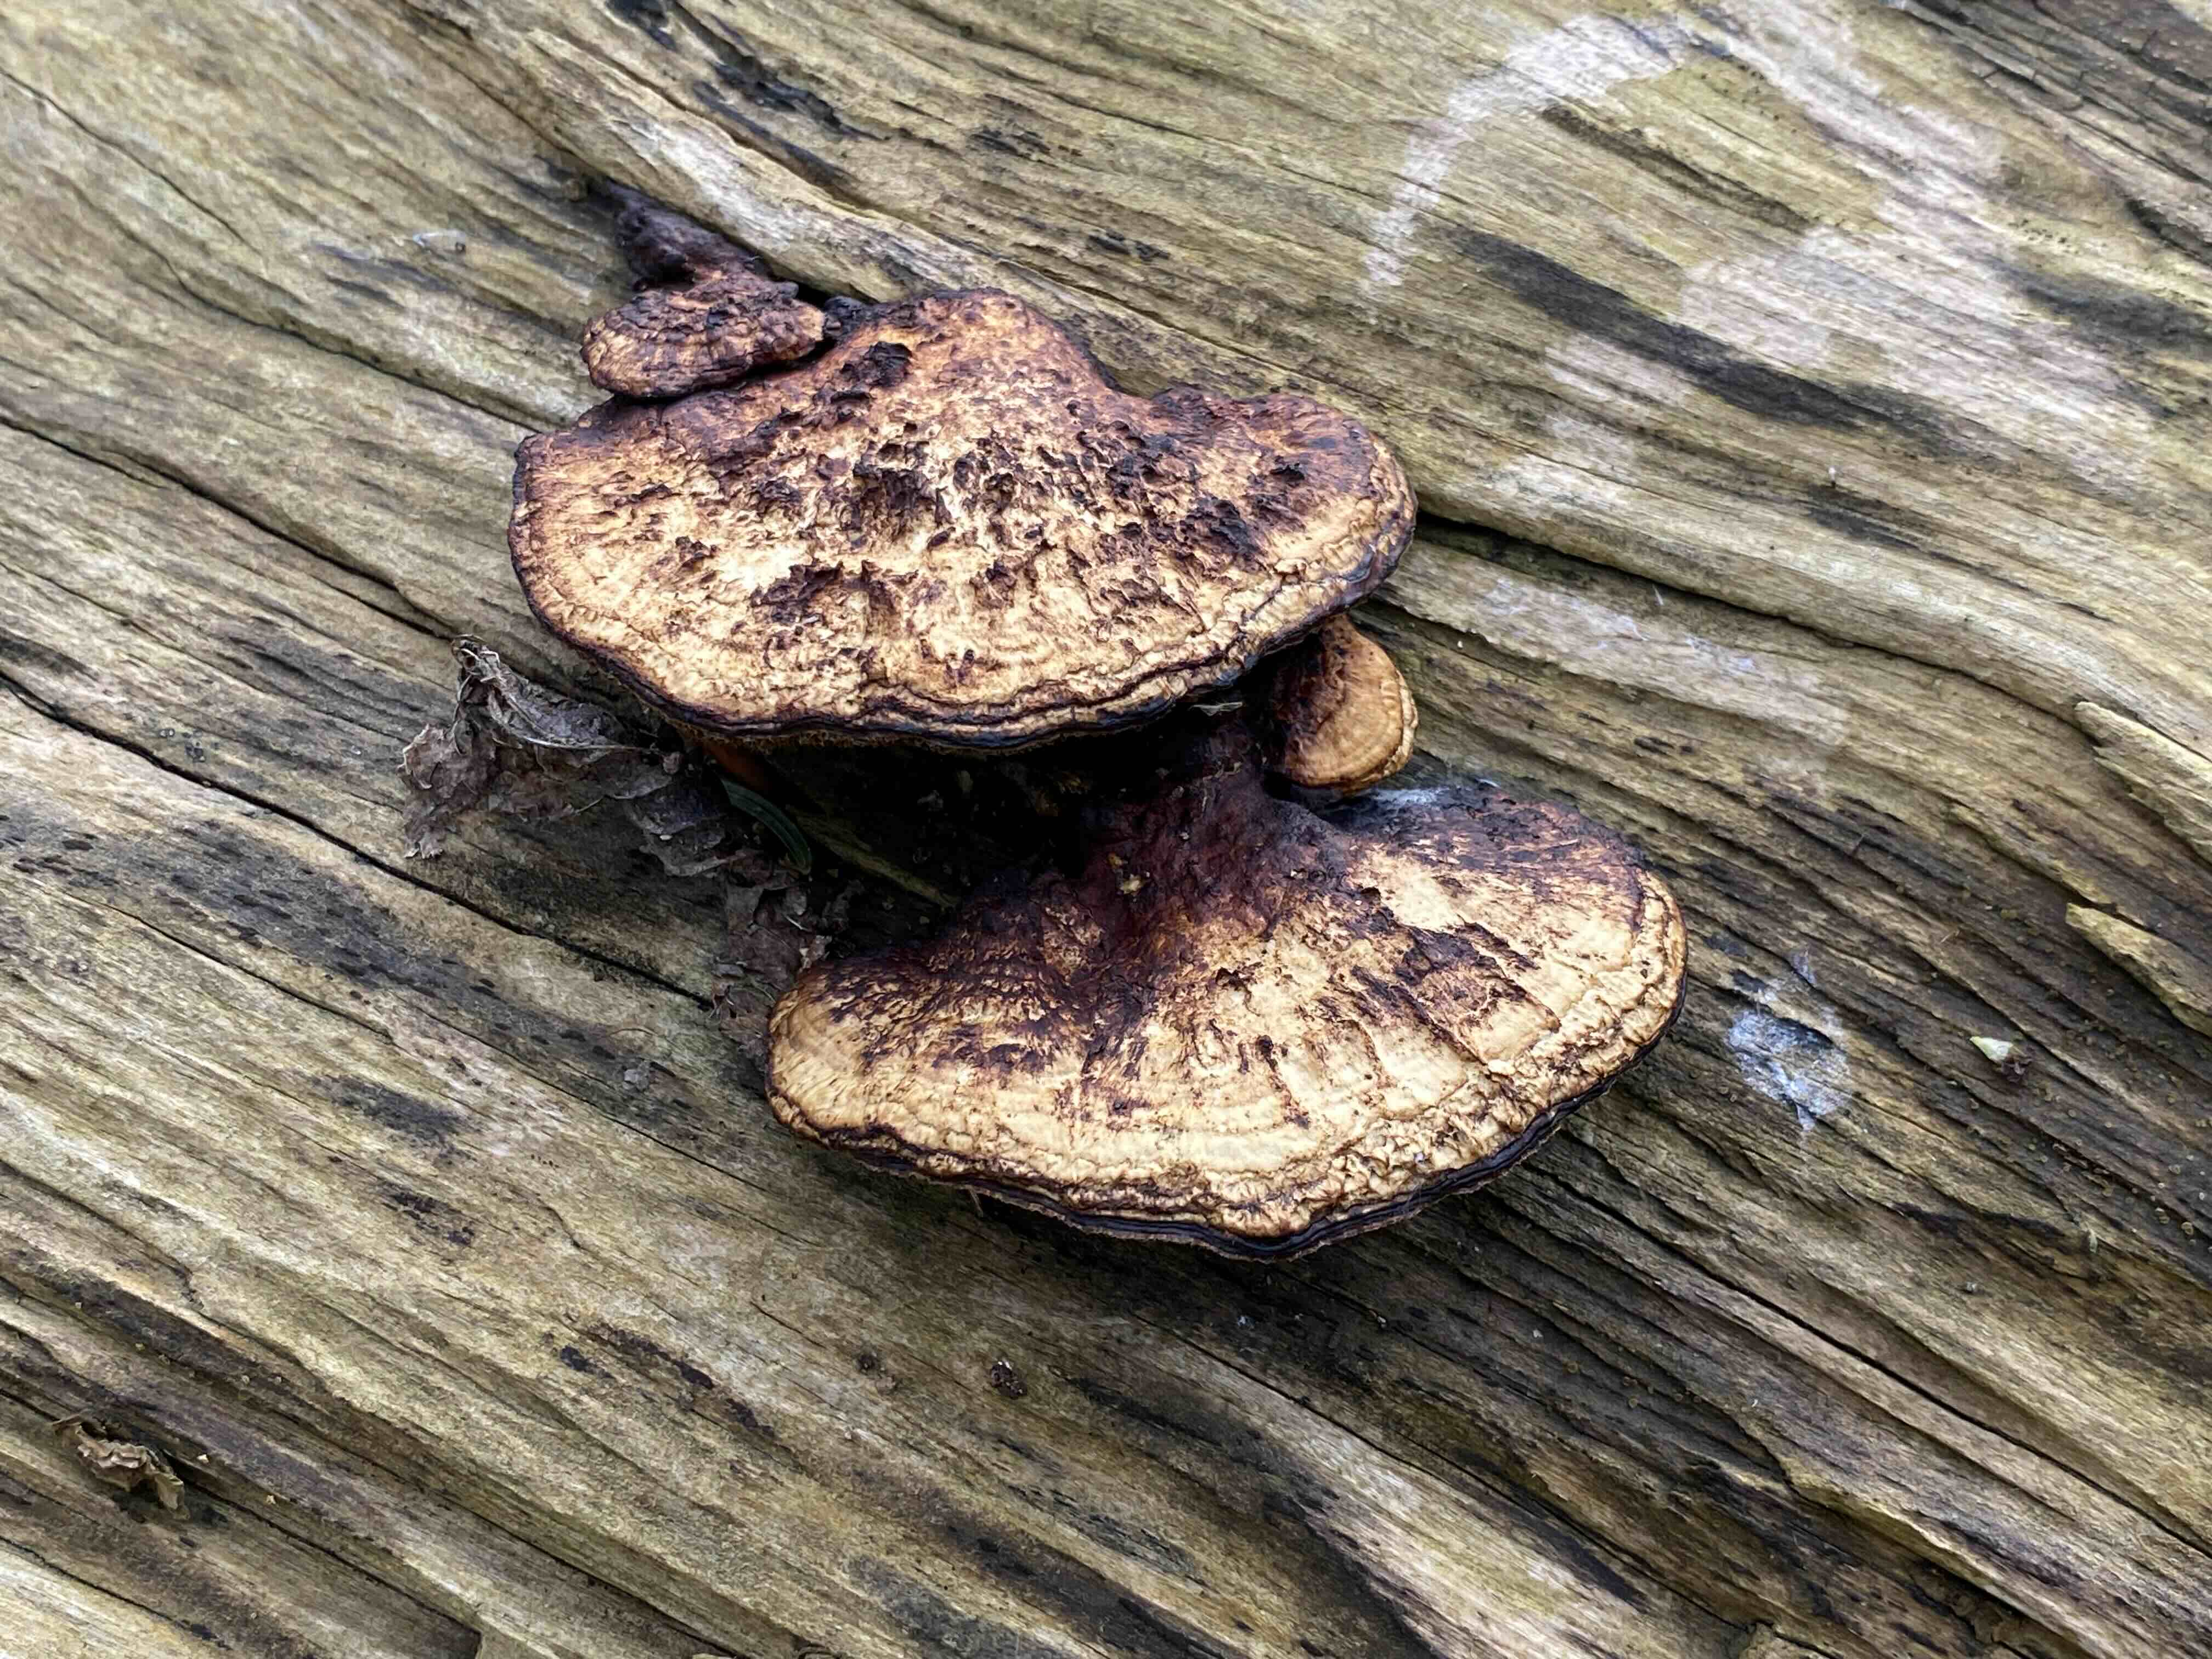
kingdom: Fungi
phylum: Basidiomycota
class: Agaricomycetes
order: Polyporales
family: Polyporaceae
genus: Daedaleopsis
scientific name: Daedaleopsis confragosa
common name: rødmende læderporesvamp
